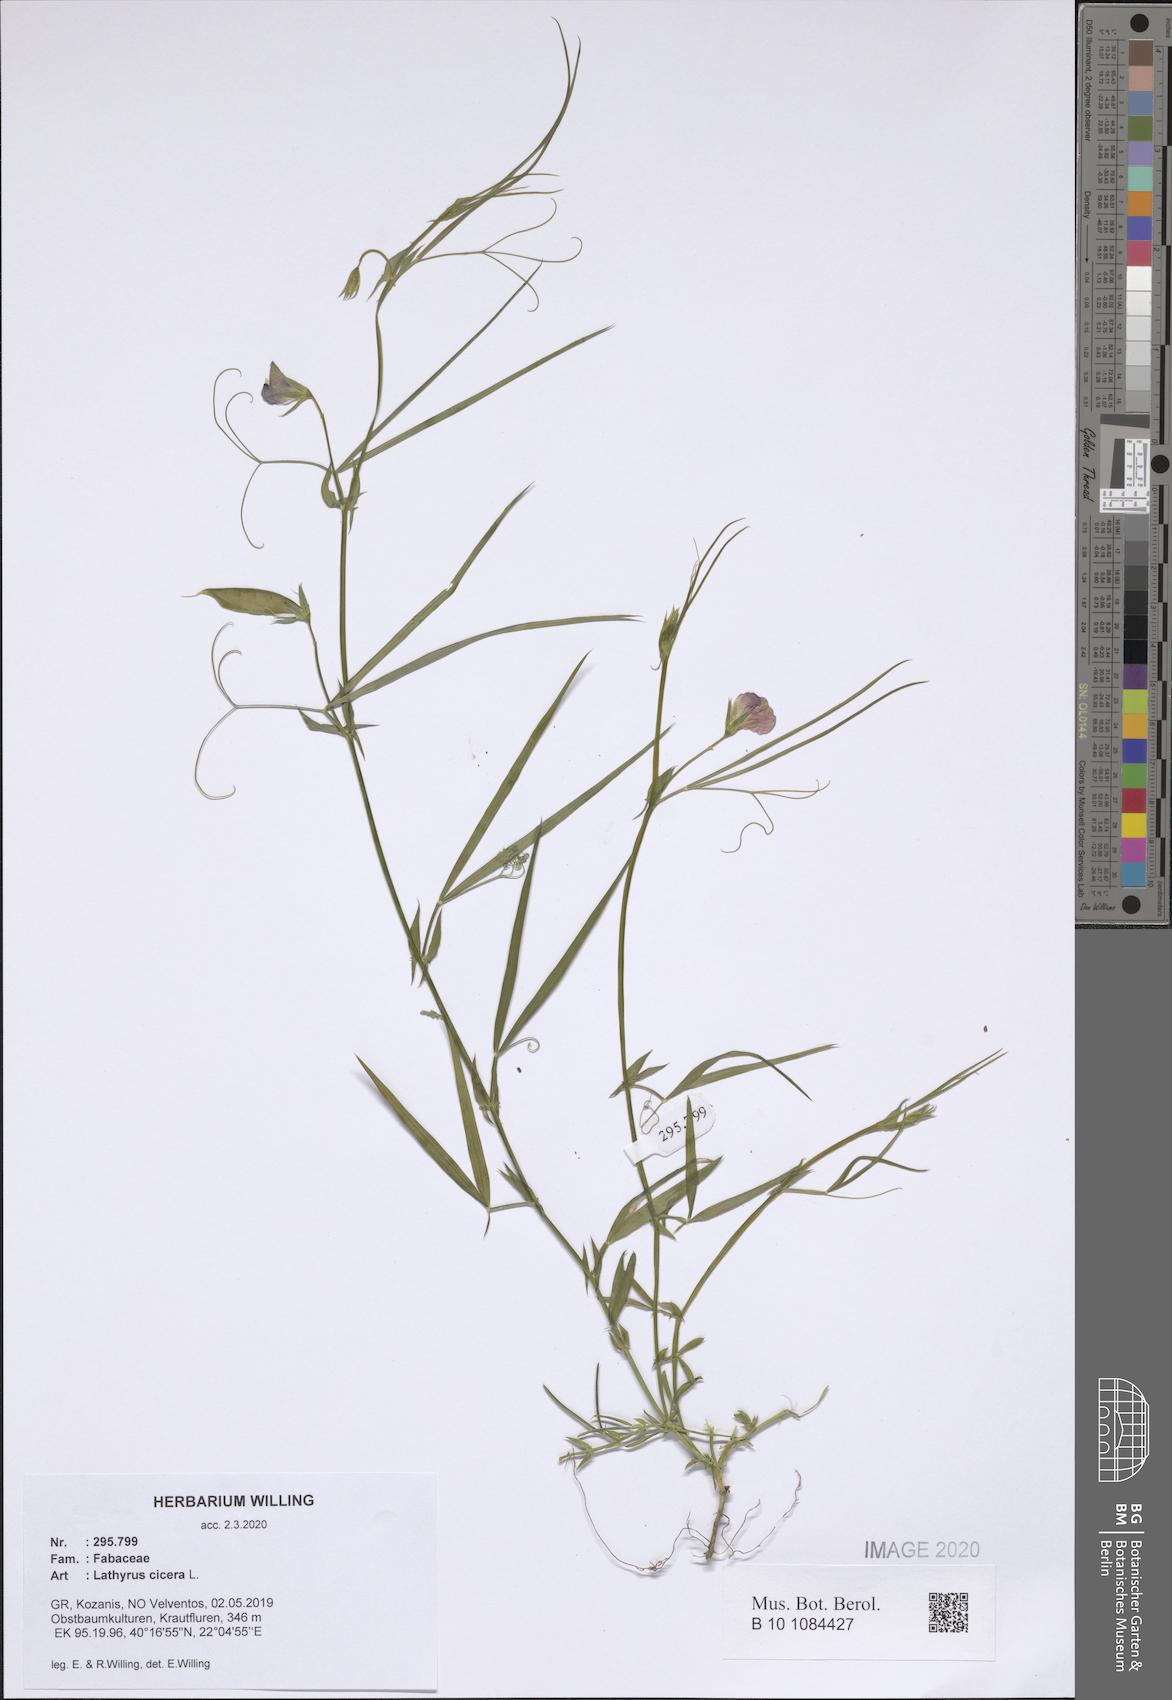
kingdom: Plantae
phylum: Tracheophyta
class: Magnoliopsida
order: Fabales
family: Fabaceae
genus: Lathyrus
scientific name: Lathyrus cicera
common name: Red vetchling
